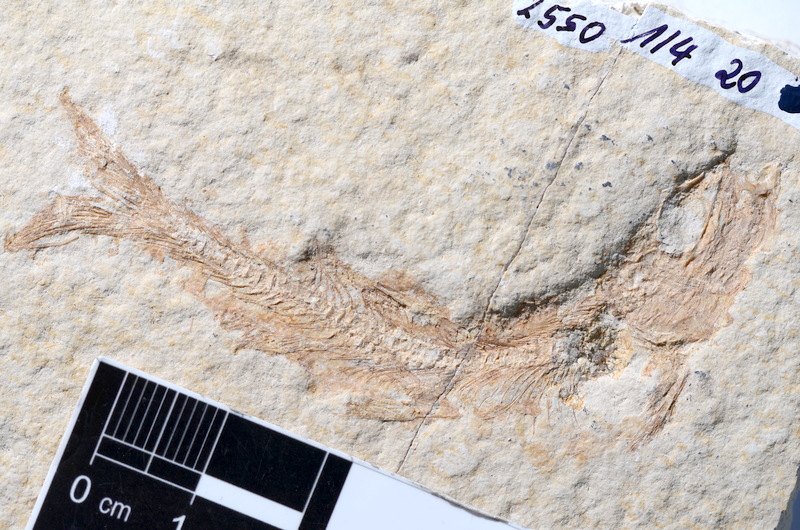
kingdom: Animalia
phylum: Chordata
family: Ascalaboidae
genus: Tharsis
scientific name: Tharsis dubius
